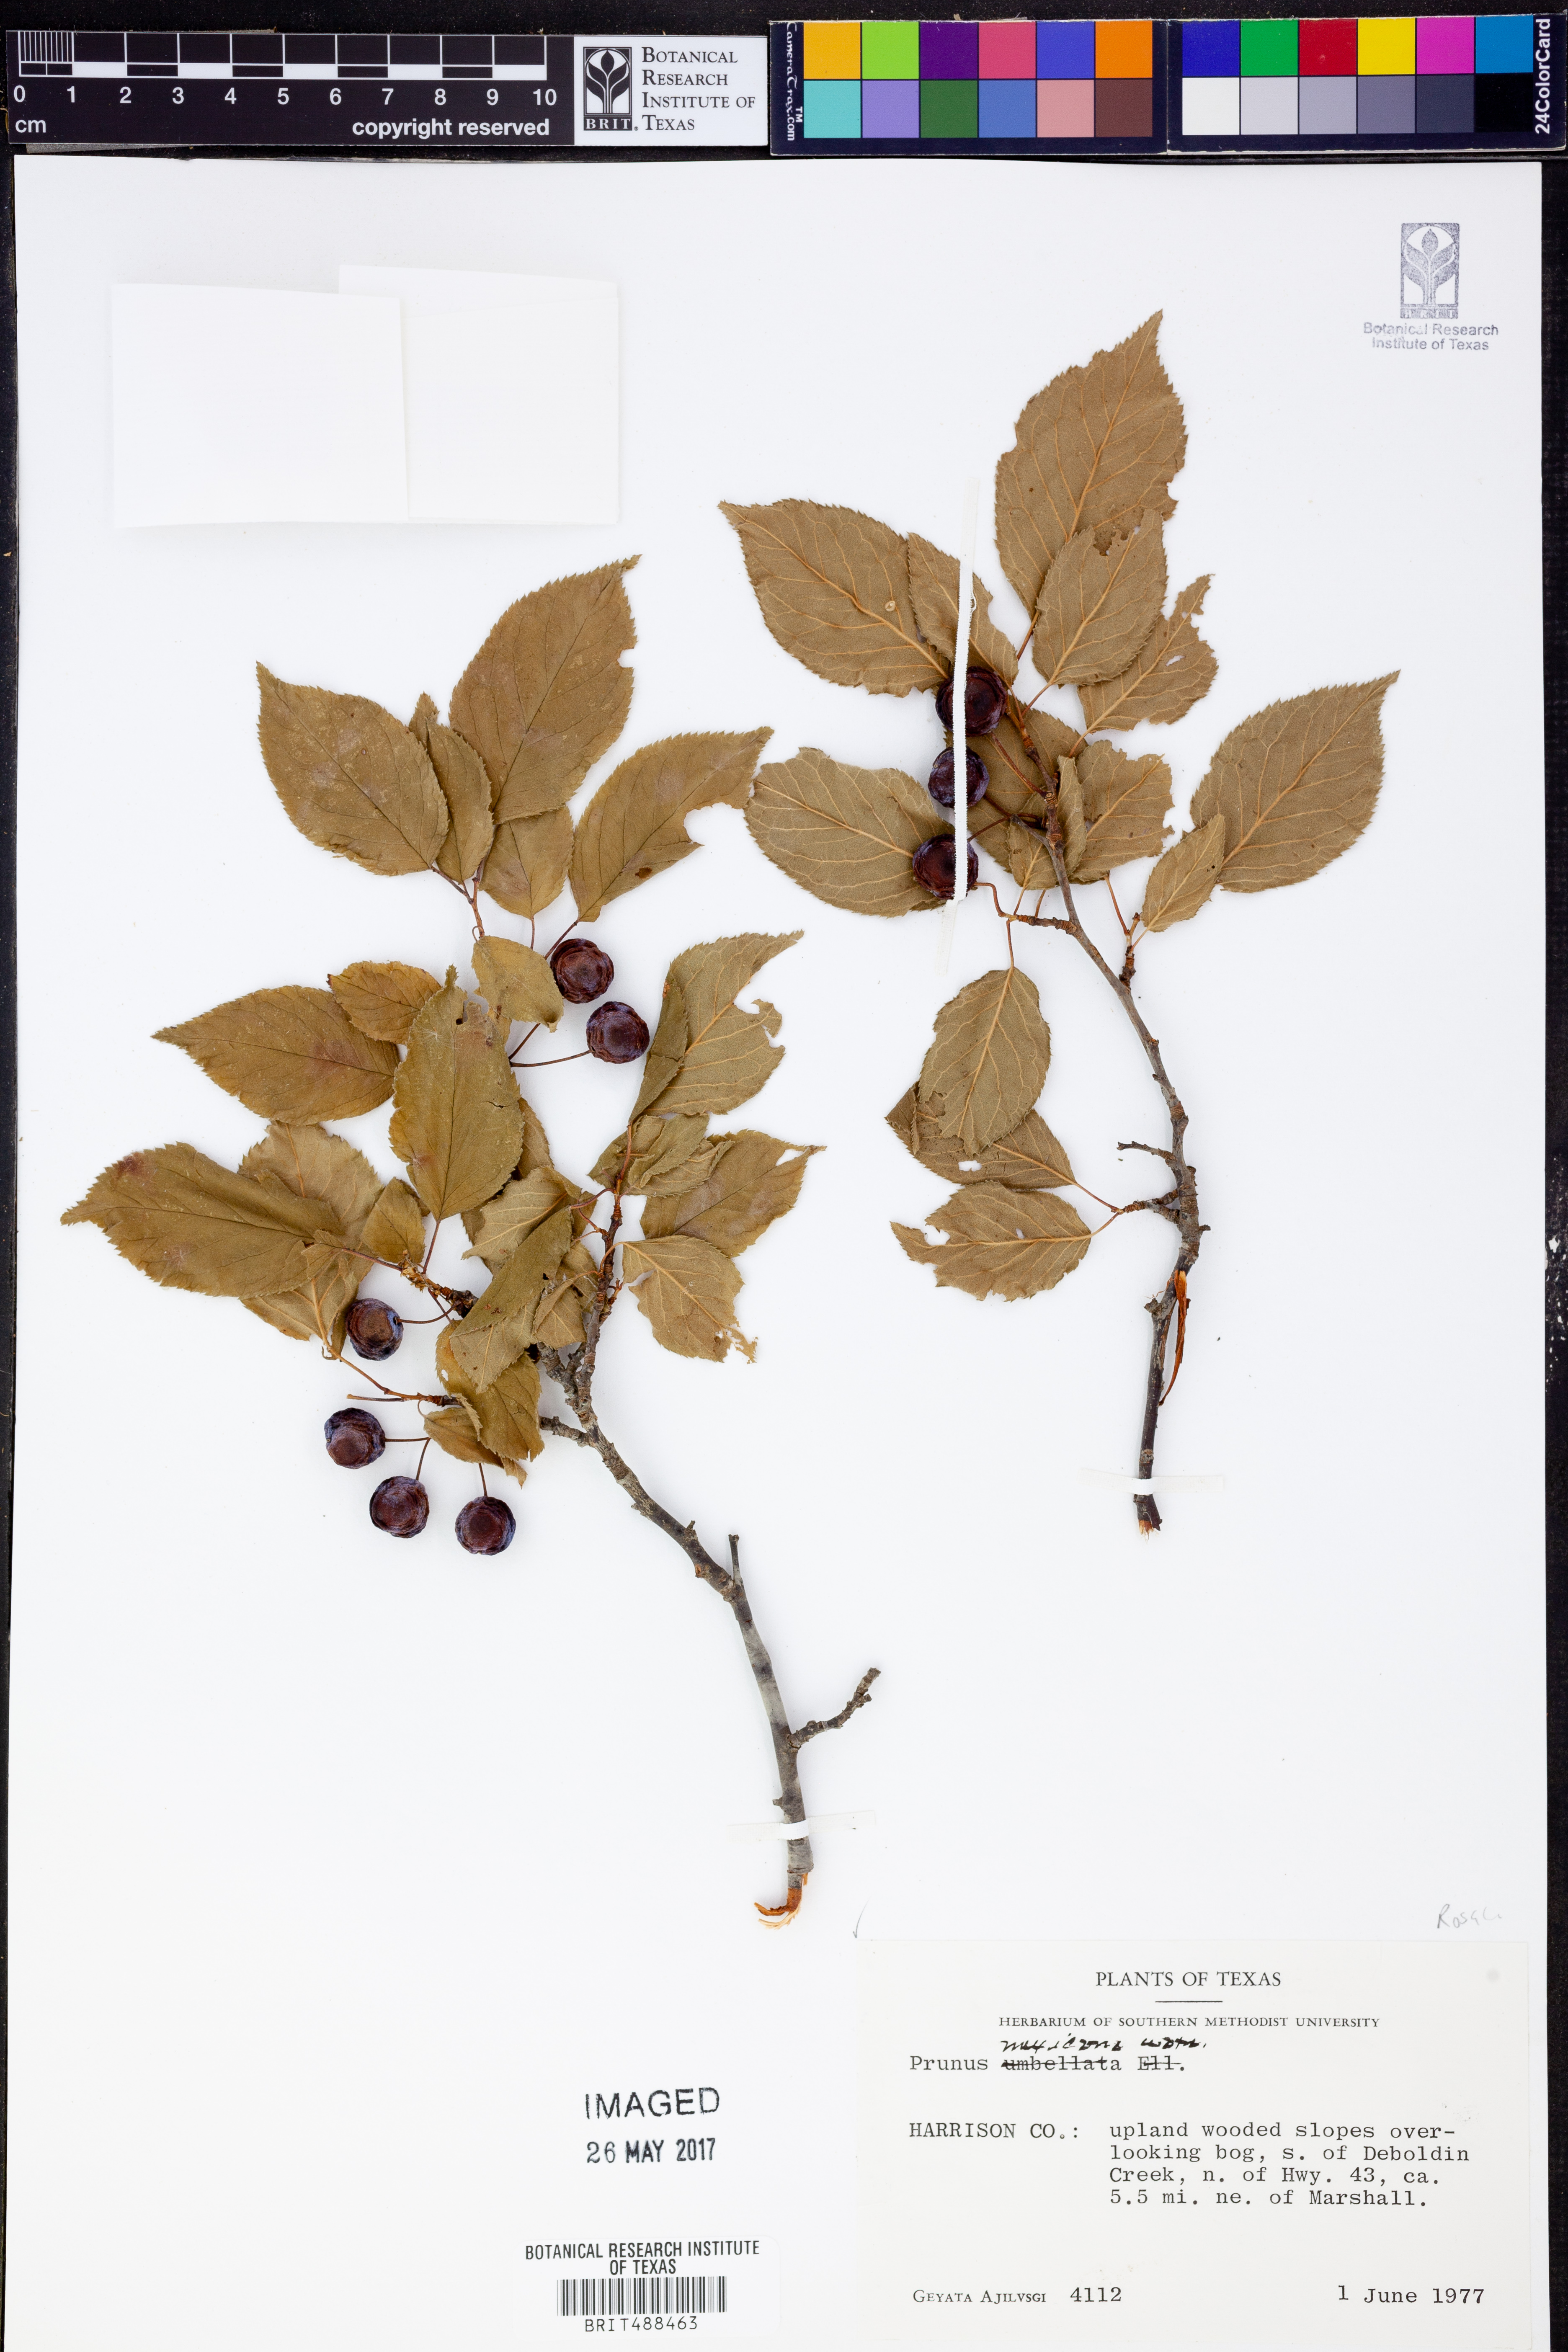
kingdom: Plantae
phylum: Tracheophyta
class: Magnoliopsida
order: Rosales
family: Rosaceae
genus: Prunus
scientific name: Prunus mexicana
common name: Mexican plum
